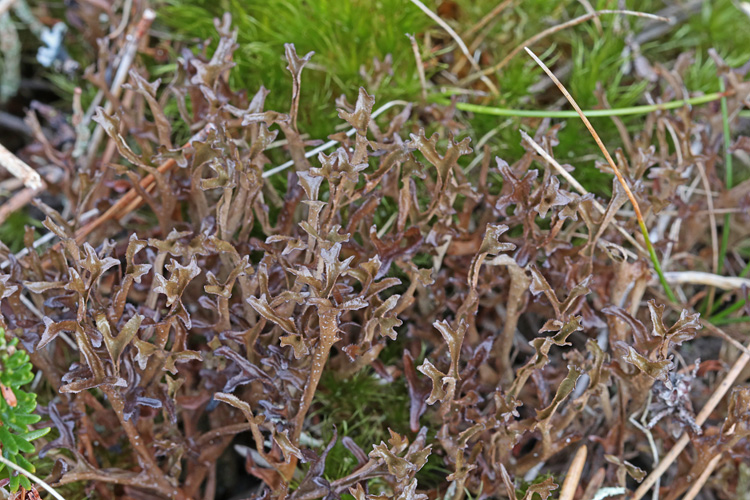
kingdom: Fungi
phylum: Ascomycota
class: Lecanoromycetes
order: Lecanorales
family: Parmeliaceae
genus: Cetraria
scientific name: Cetraria islandica
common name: islandsk kruslav
